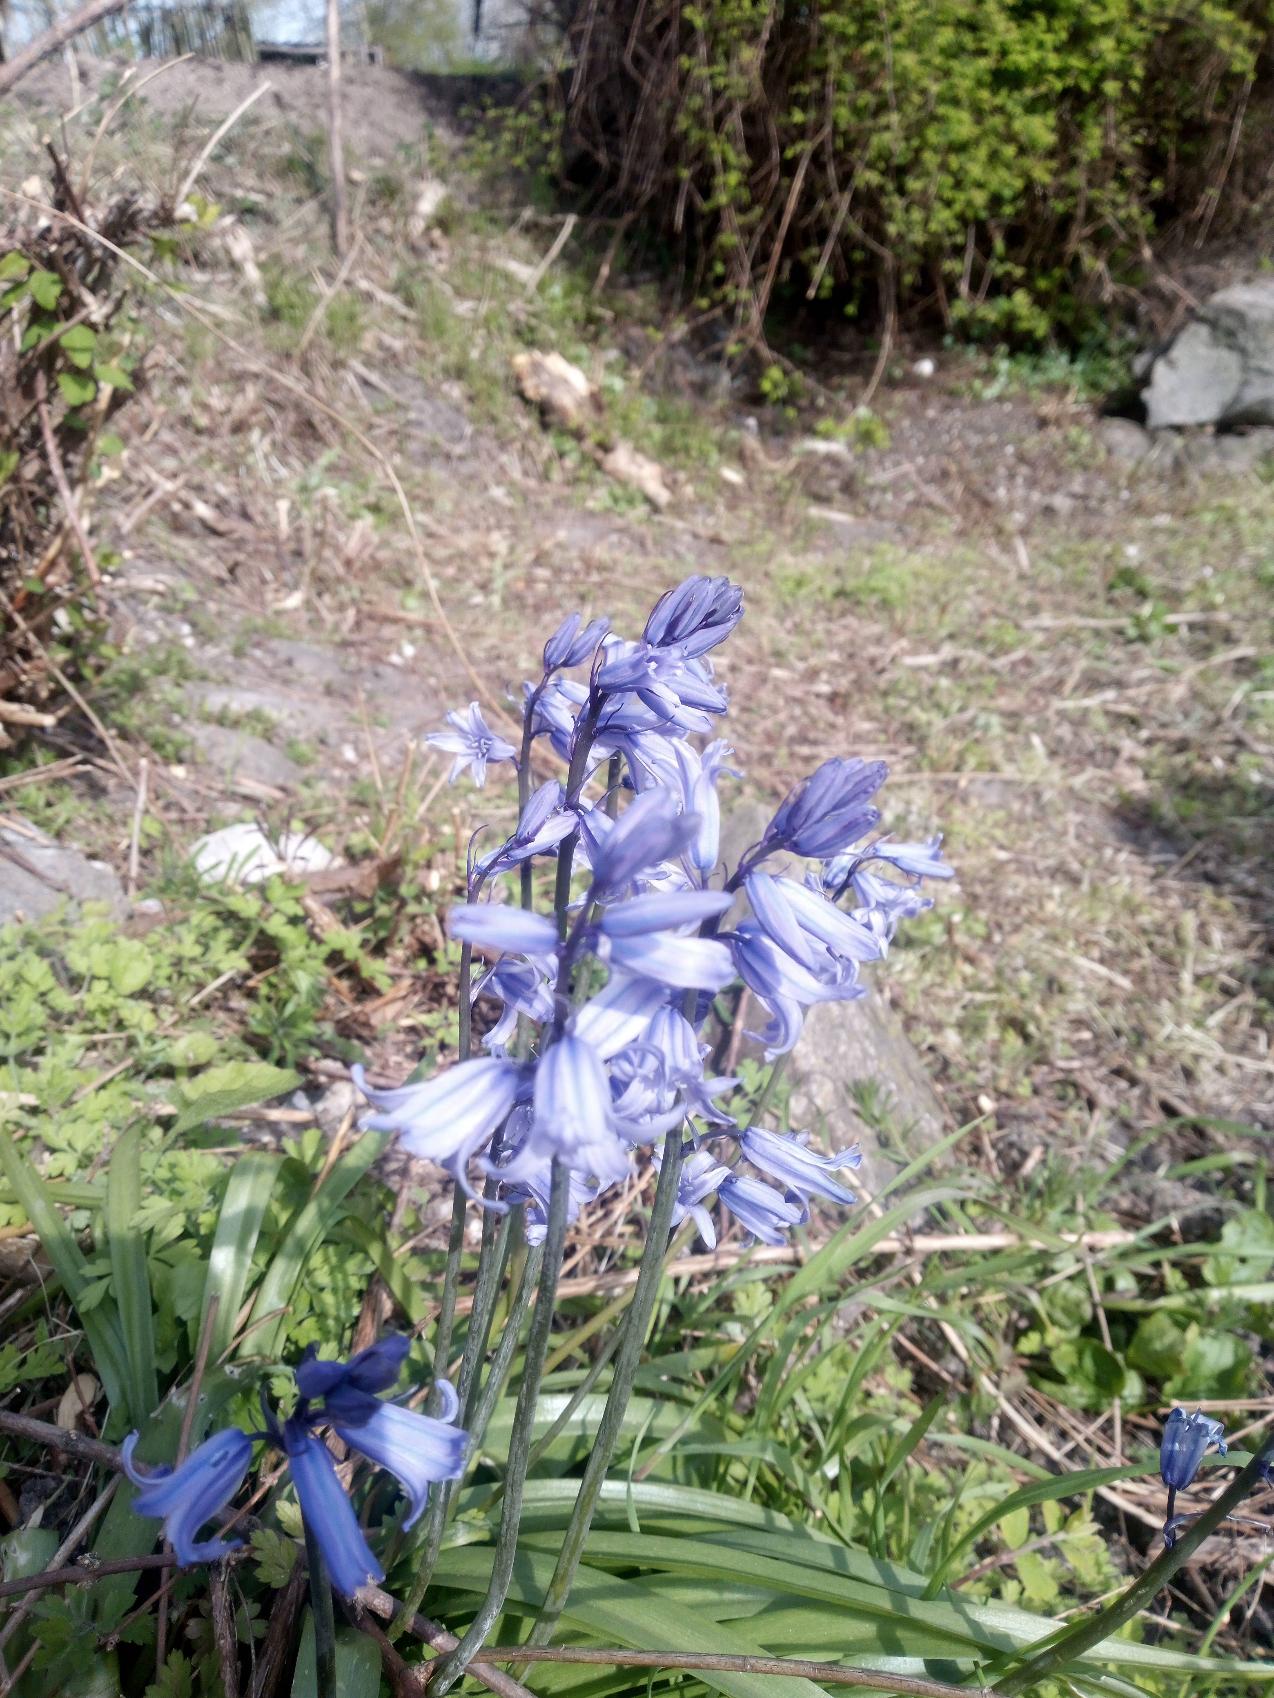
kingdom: Plantae
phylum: Tracheophyta
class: Liliopsida
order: Asparagales
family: Asparagaceae
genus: Hyacinthoides
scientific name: Hyacinthoides massartiana
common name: Hybrid-klokkeskilla
